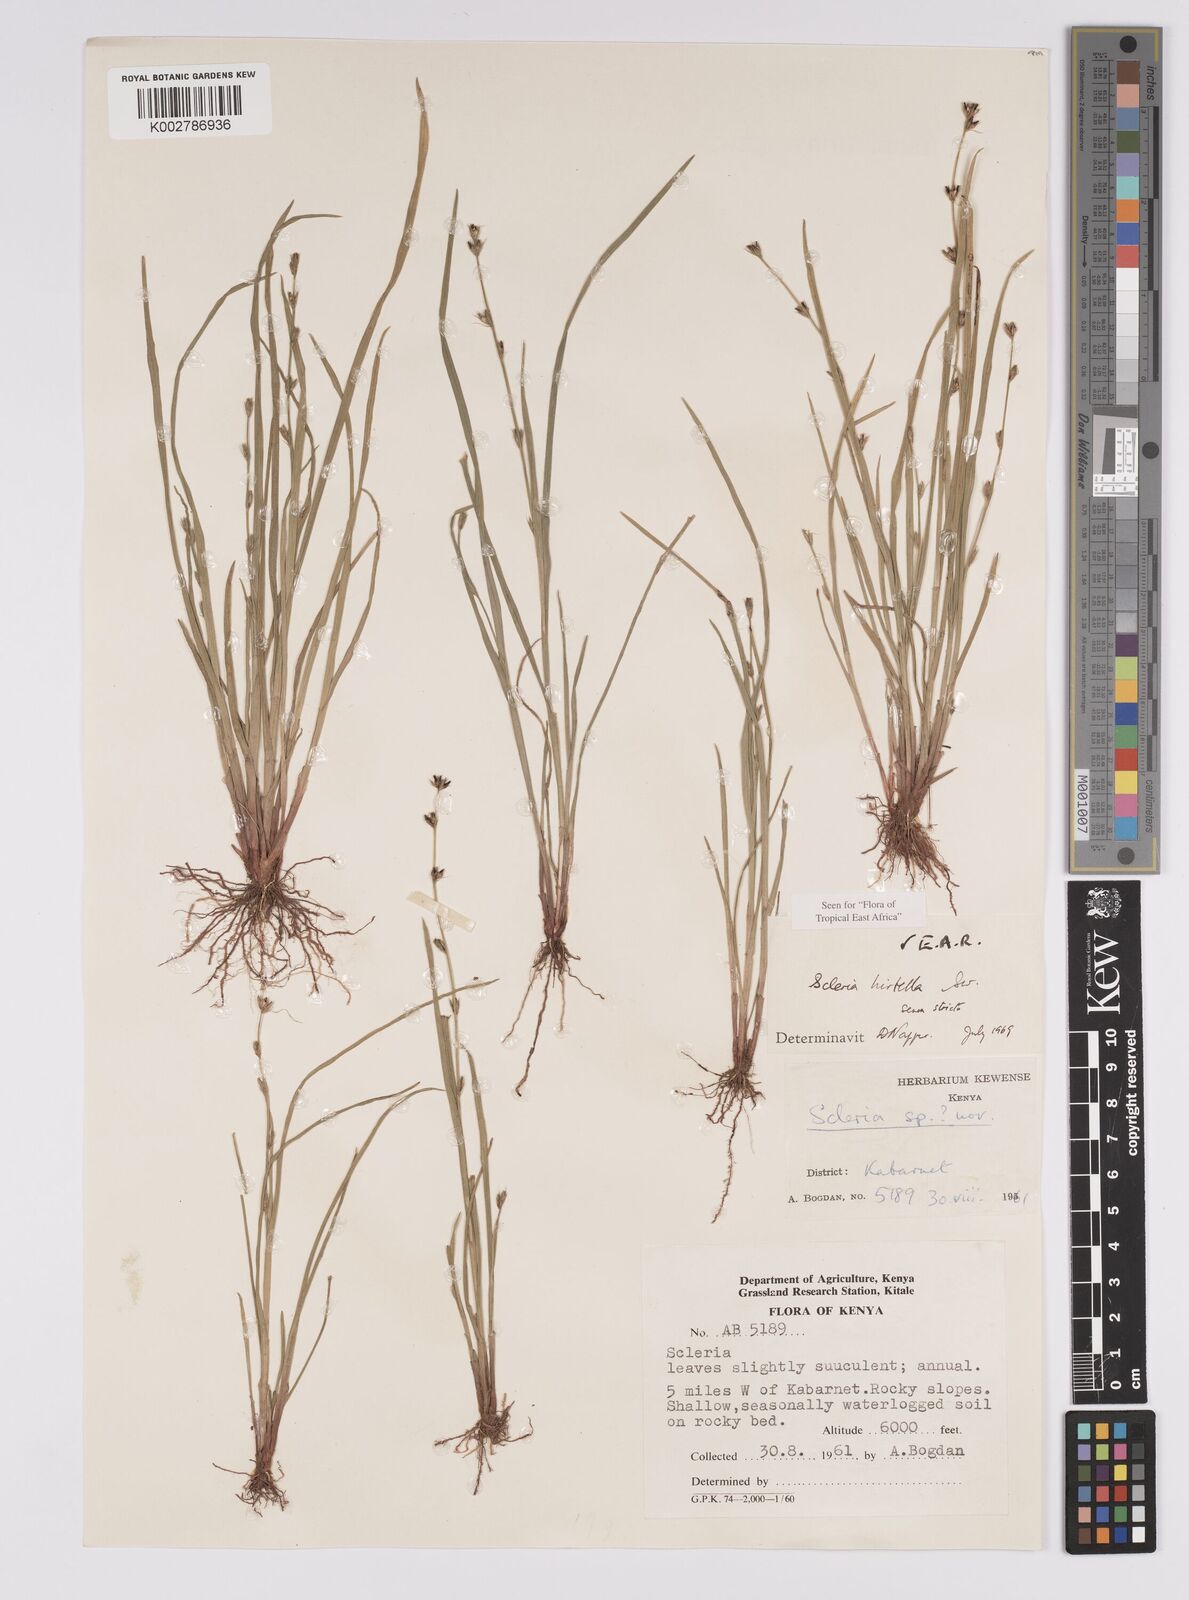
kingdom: Plantae
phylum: Tracheophyta
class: Liliopsida
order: Poales
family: Cyperaceae
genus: Scleria
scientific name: Scleria hirtella
